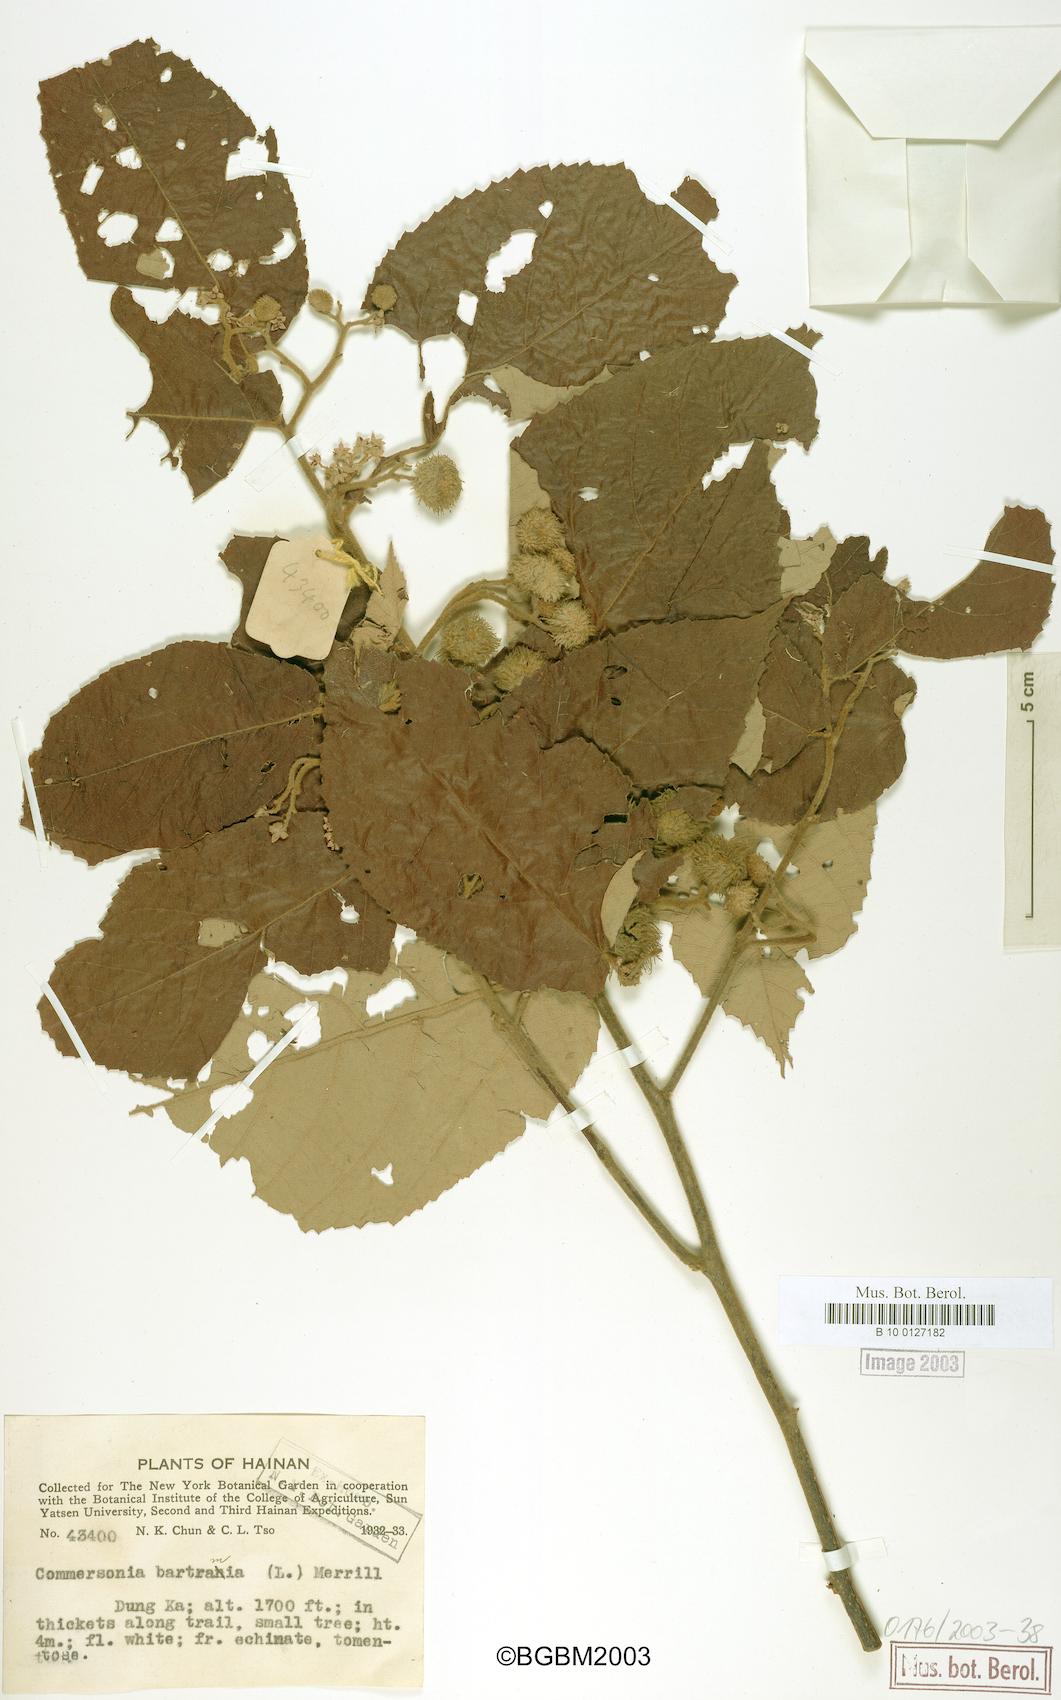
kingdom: Plantae
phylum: Tracheophyta
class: Magnoliopsida
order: Malvales
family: Malvaceae
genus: Commersonia
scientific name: Commersonia bartramia
